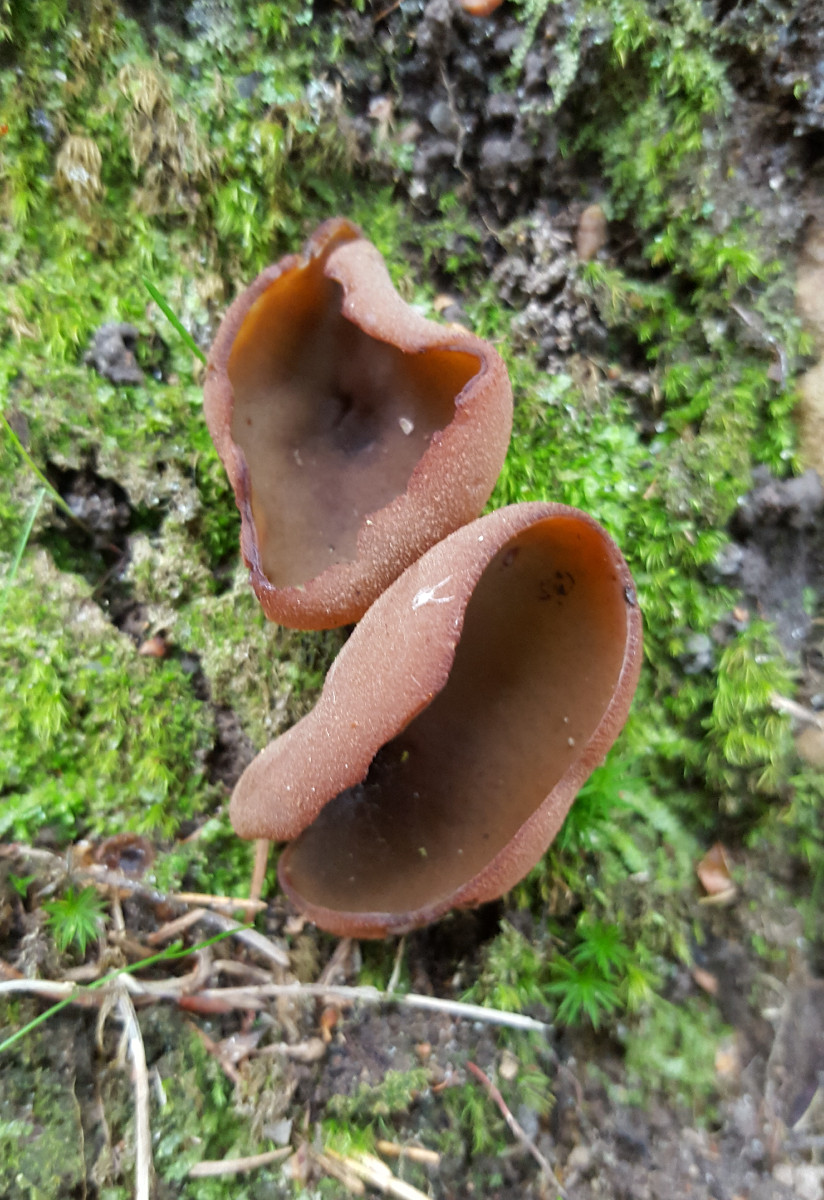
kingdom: Fungi
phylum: Ascomycota
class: Pezizomycetes
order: Pezizales
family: Pezizaceae
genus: Legaliana
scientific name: Legaliana badia
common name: leverbrun bægersvamp
